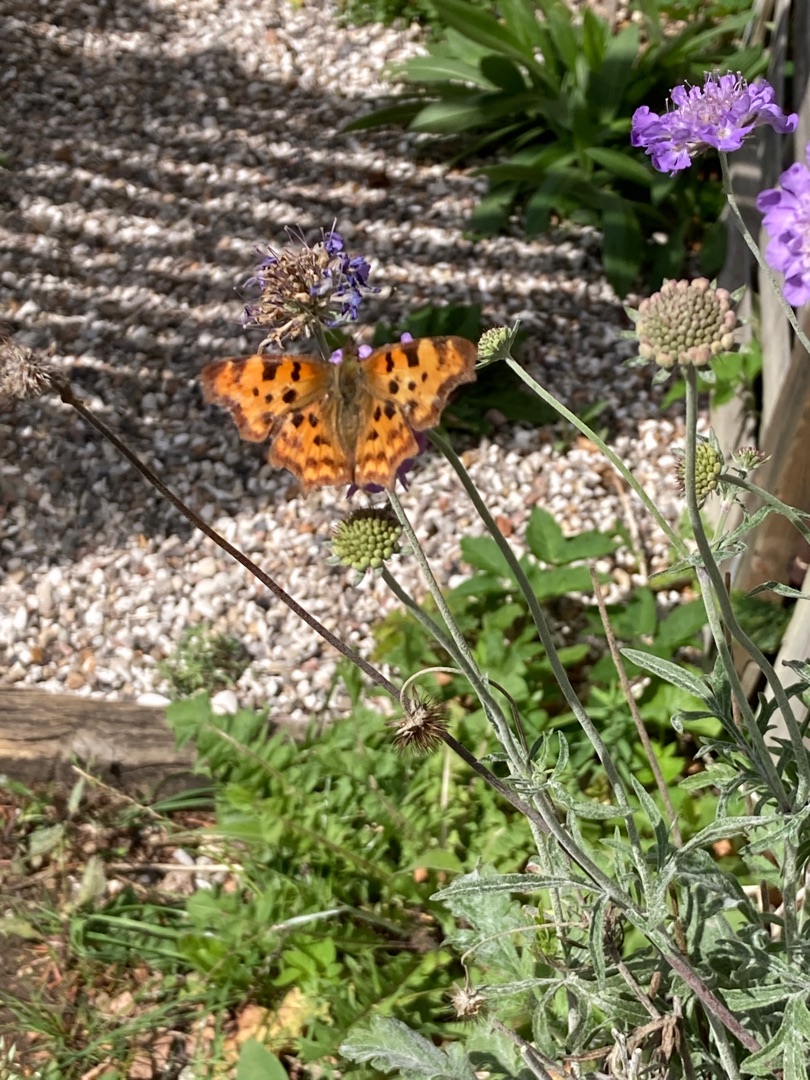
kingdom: Animalia
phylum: Arthropoda
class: Insecta
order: Lepidoptera
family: Nymphalidae
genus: Polygonia
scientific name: Polygonia c-album
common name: Det hvide C
